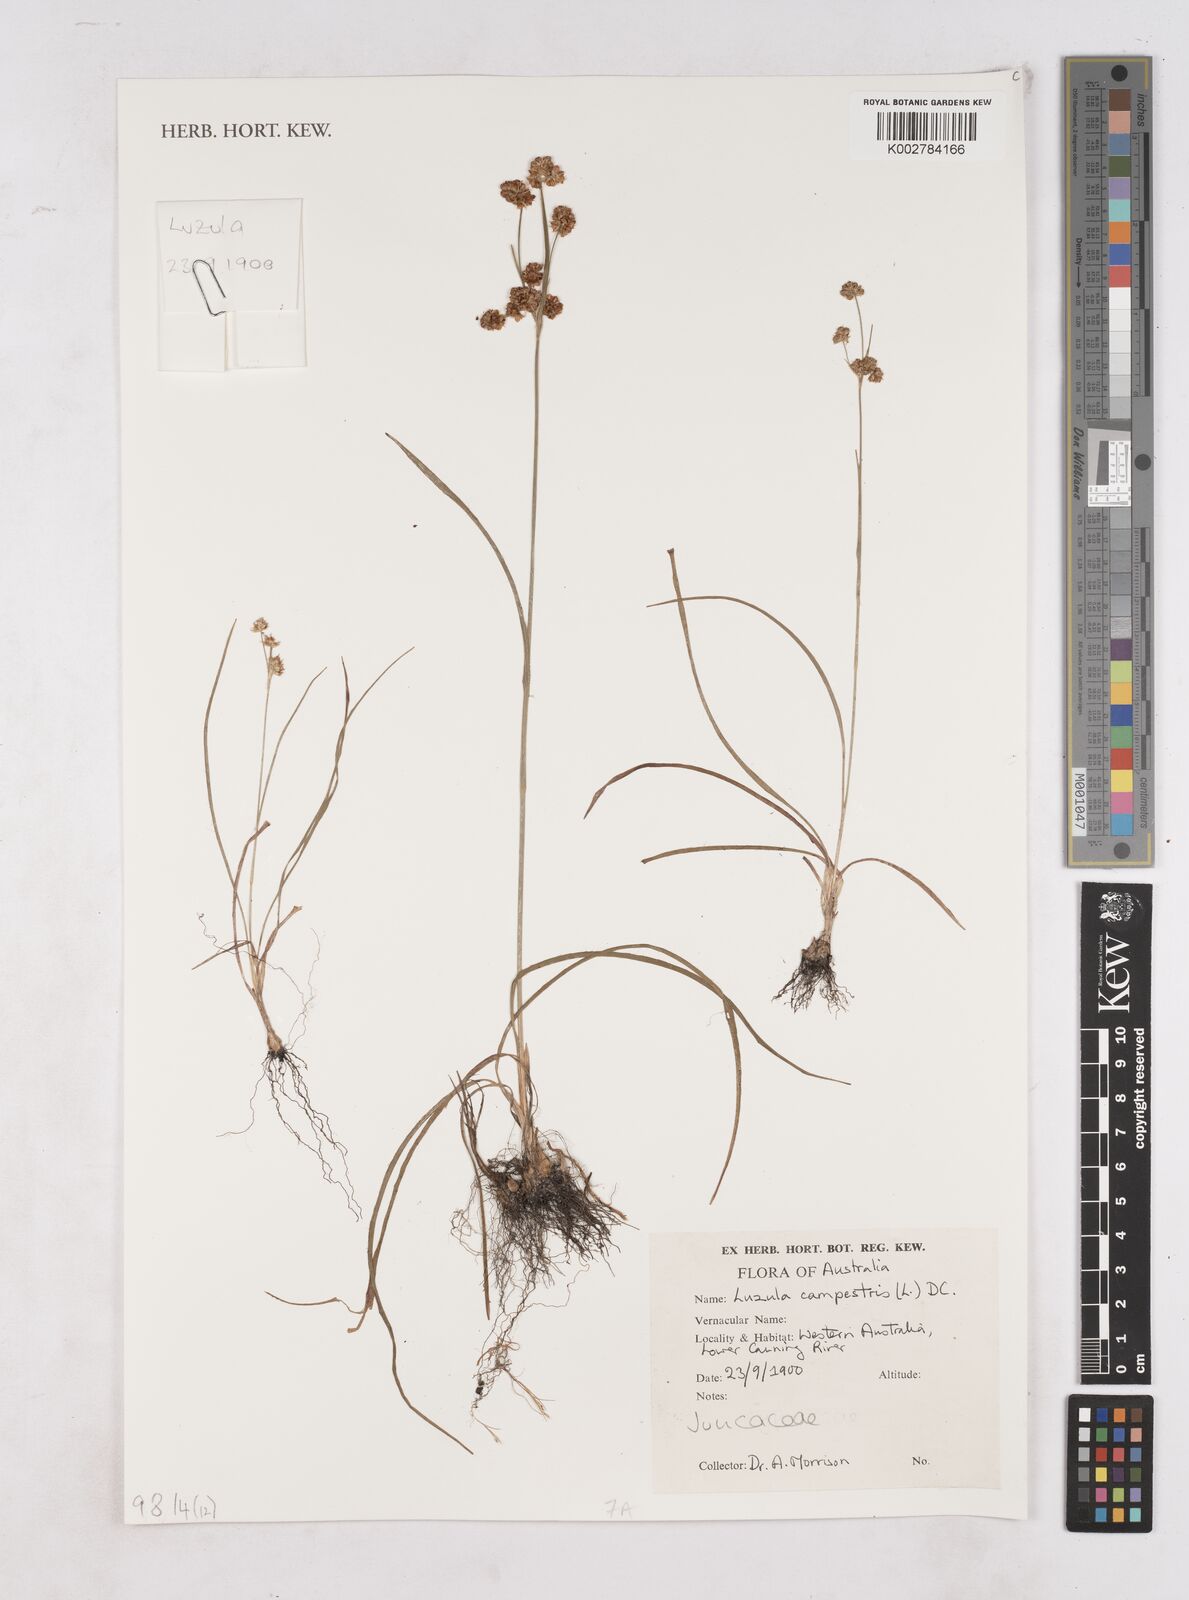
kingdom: Plantae
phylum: Tracheophyta
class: Liliopsida
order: Poales
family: Juncaceae
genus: Luzula
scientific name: Luzula campestris
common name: Field wood-rush
